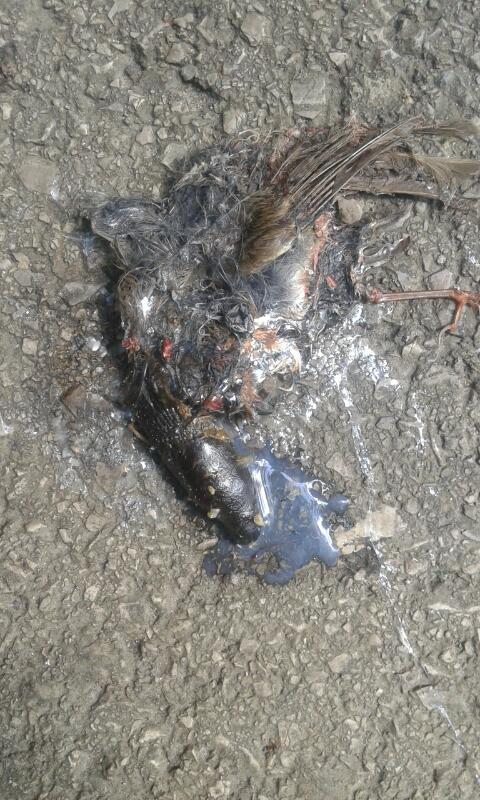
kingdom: Animalia
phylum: Chordata
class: Aves
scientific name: Aves
